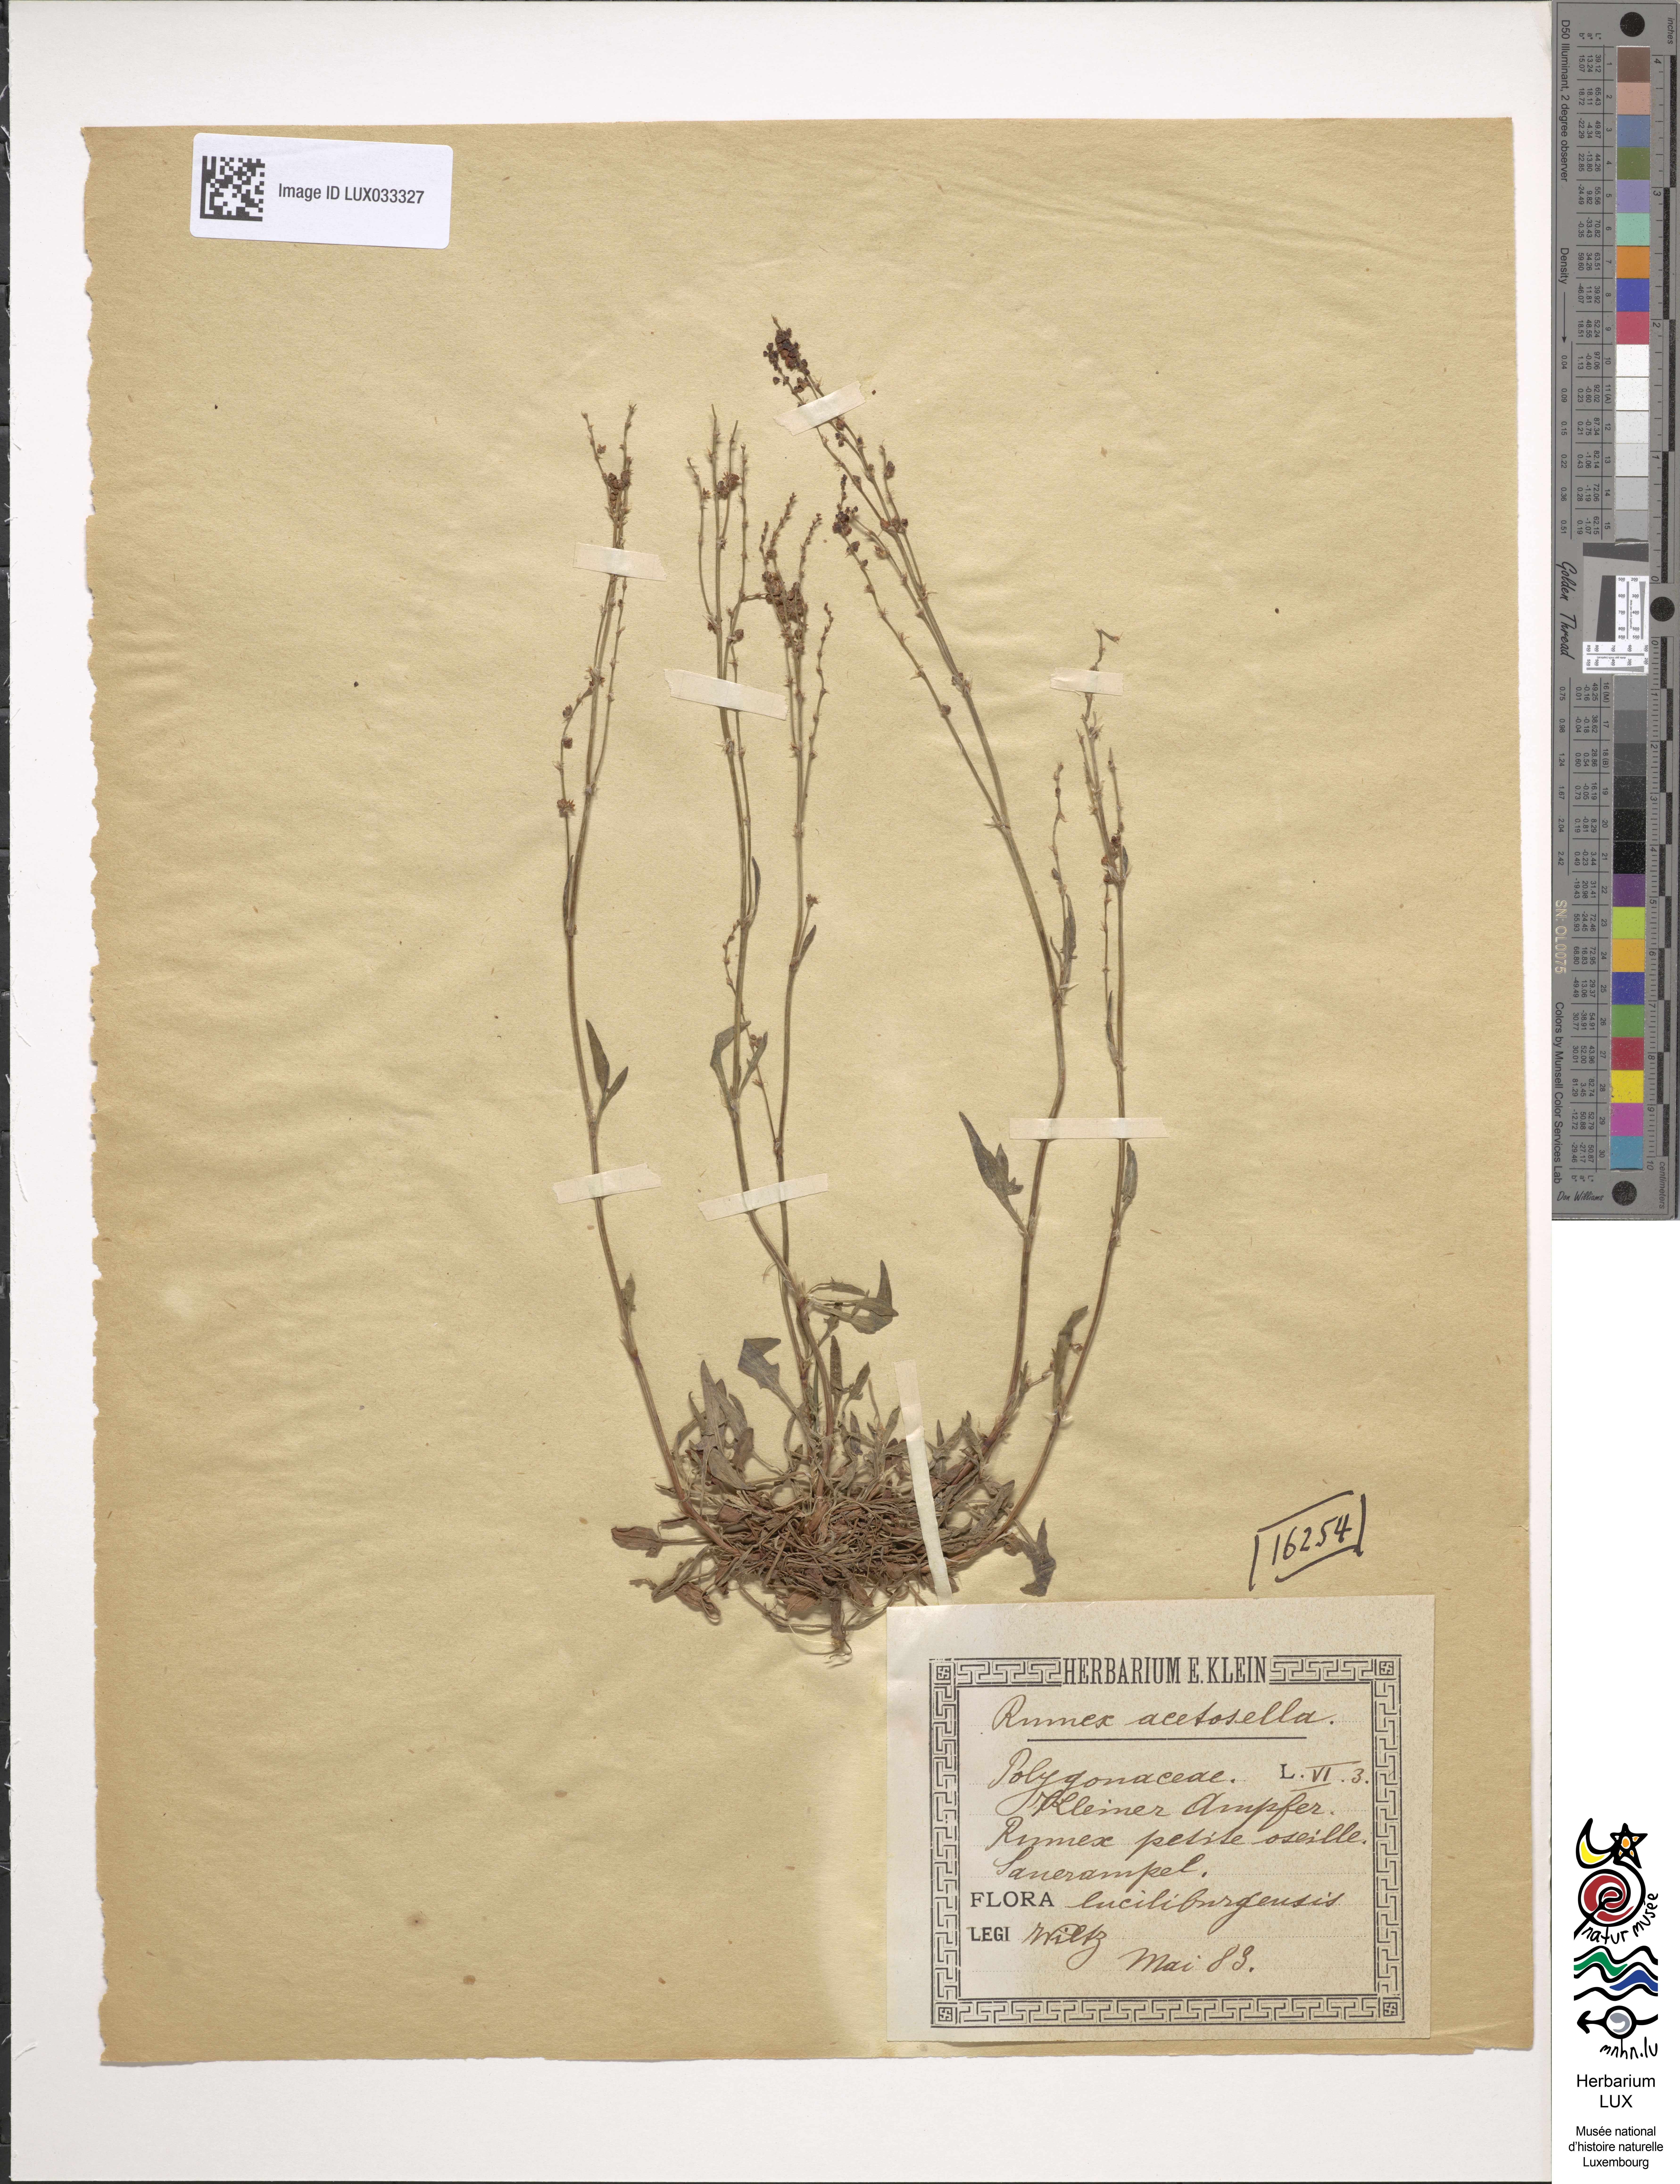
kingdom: Plantae
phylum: Tracheophyta
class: Magnoliopsida
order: Caryophyllales
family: Polygonaceae
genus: Rumex
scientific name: Rumex acetosella
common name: Common sheep sorrel
